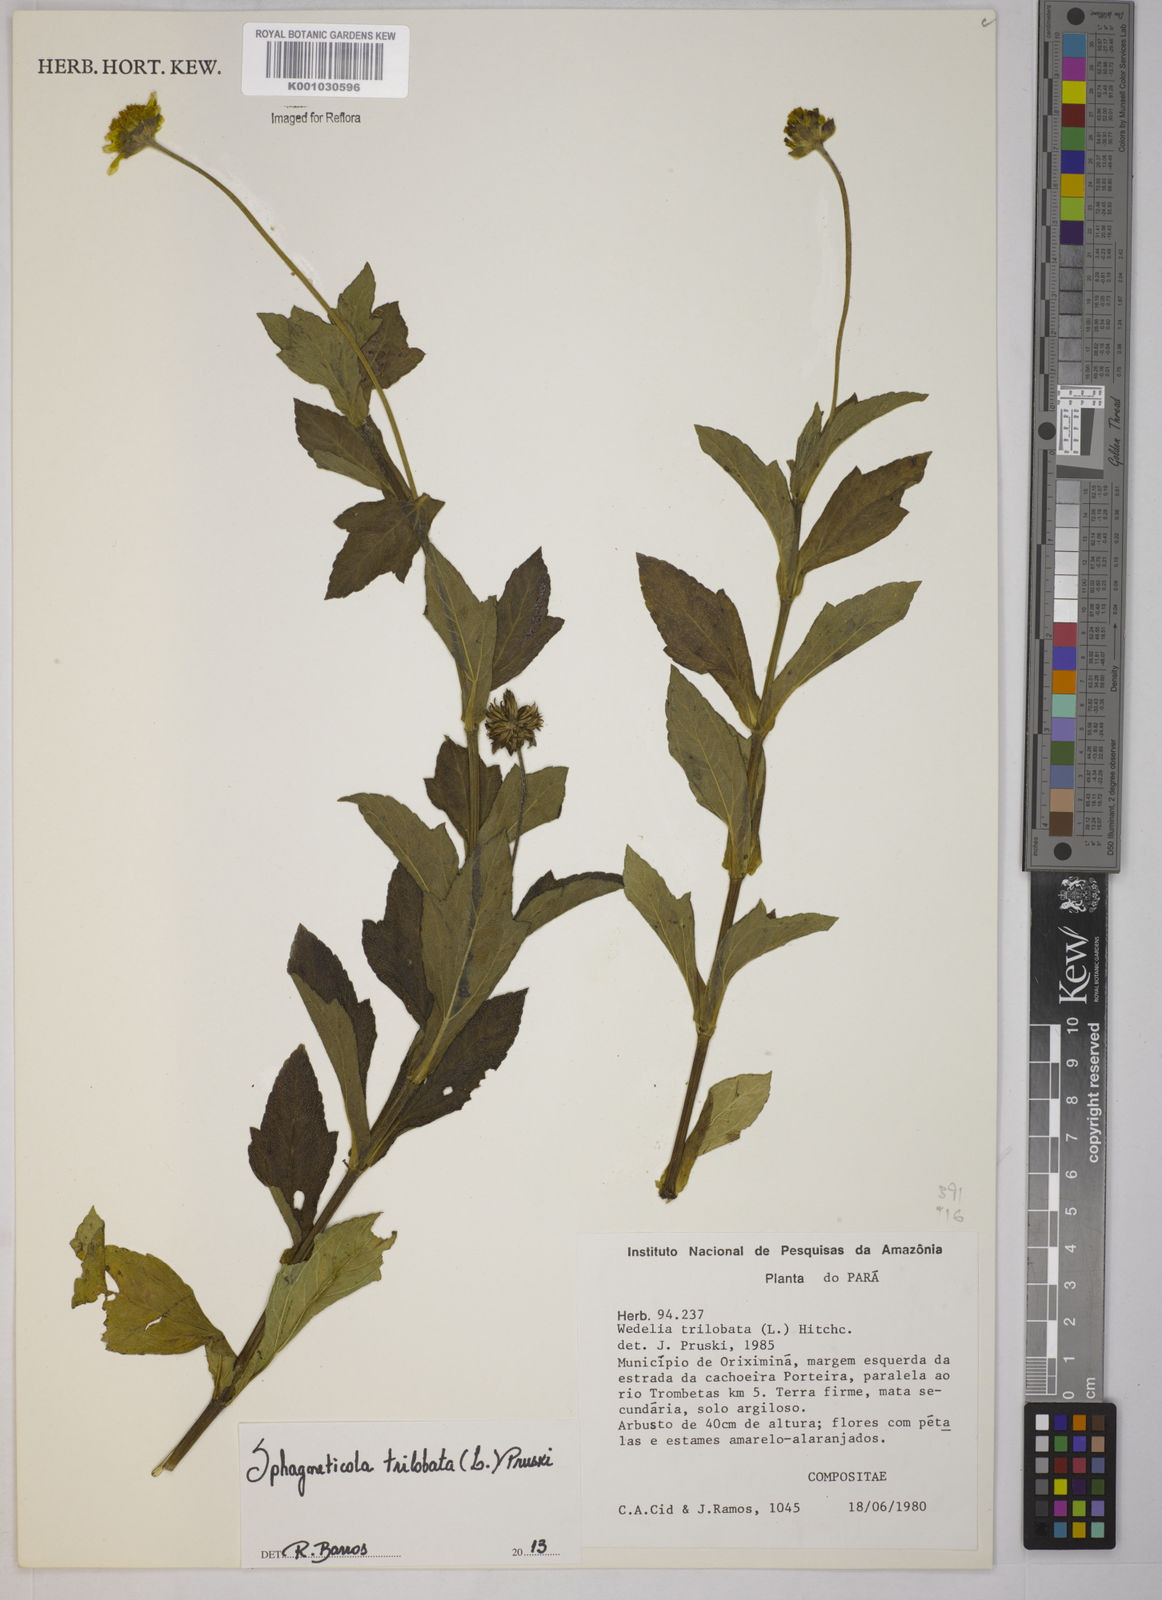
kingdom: Plantae
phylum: Tracheophyta
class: Magnoliopsida
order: Asterales
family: Asteraceae
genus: Sphagneticola
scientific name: Sphagneticola trilobata
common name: Bay biscayne creeping-oxeye
